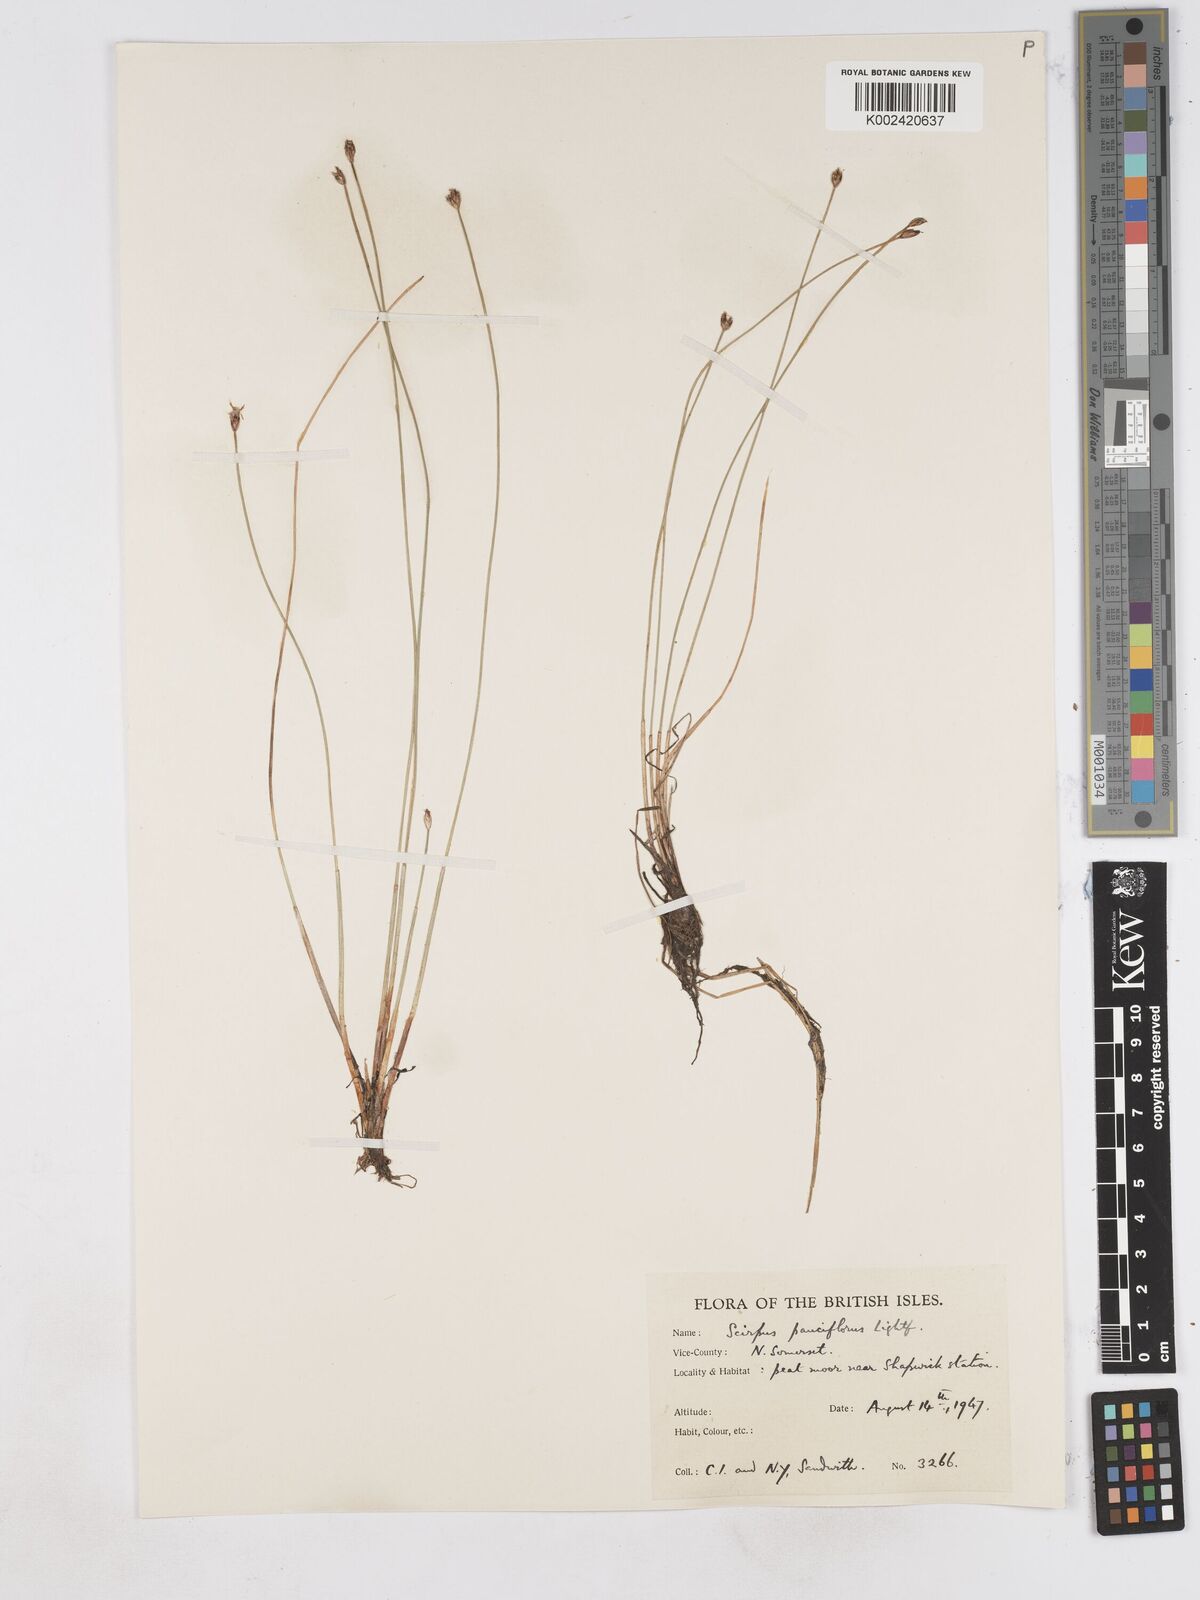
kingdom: Plantae
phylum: Tracheophyta
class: Liliopsida
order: Poales
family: Cyperaceae
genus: Eleocharis
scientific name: Eleocharis quinqueflora
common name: Few-flowered spike-rush
